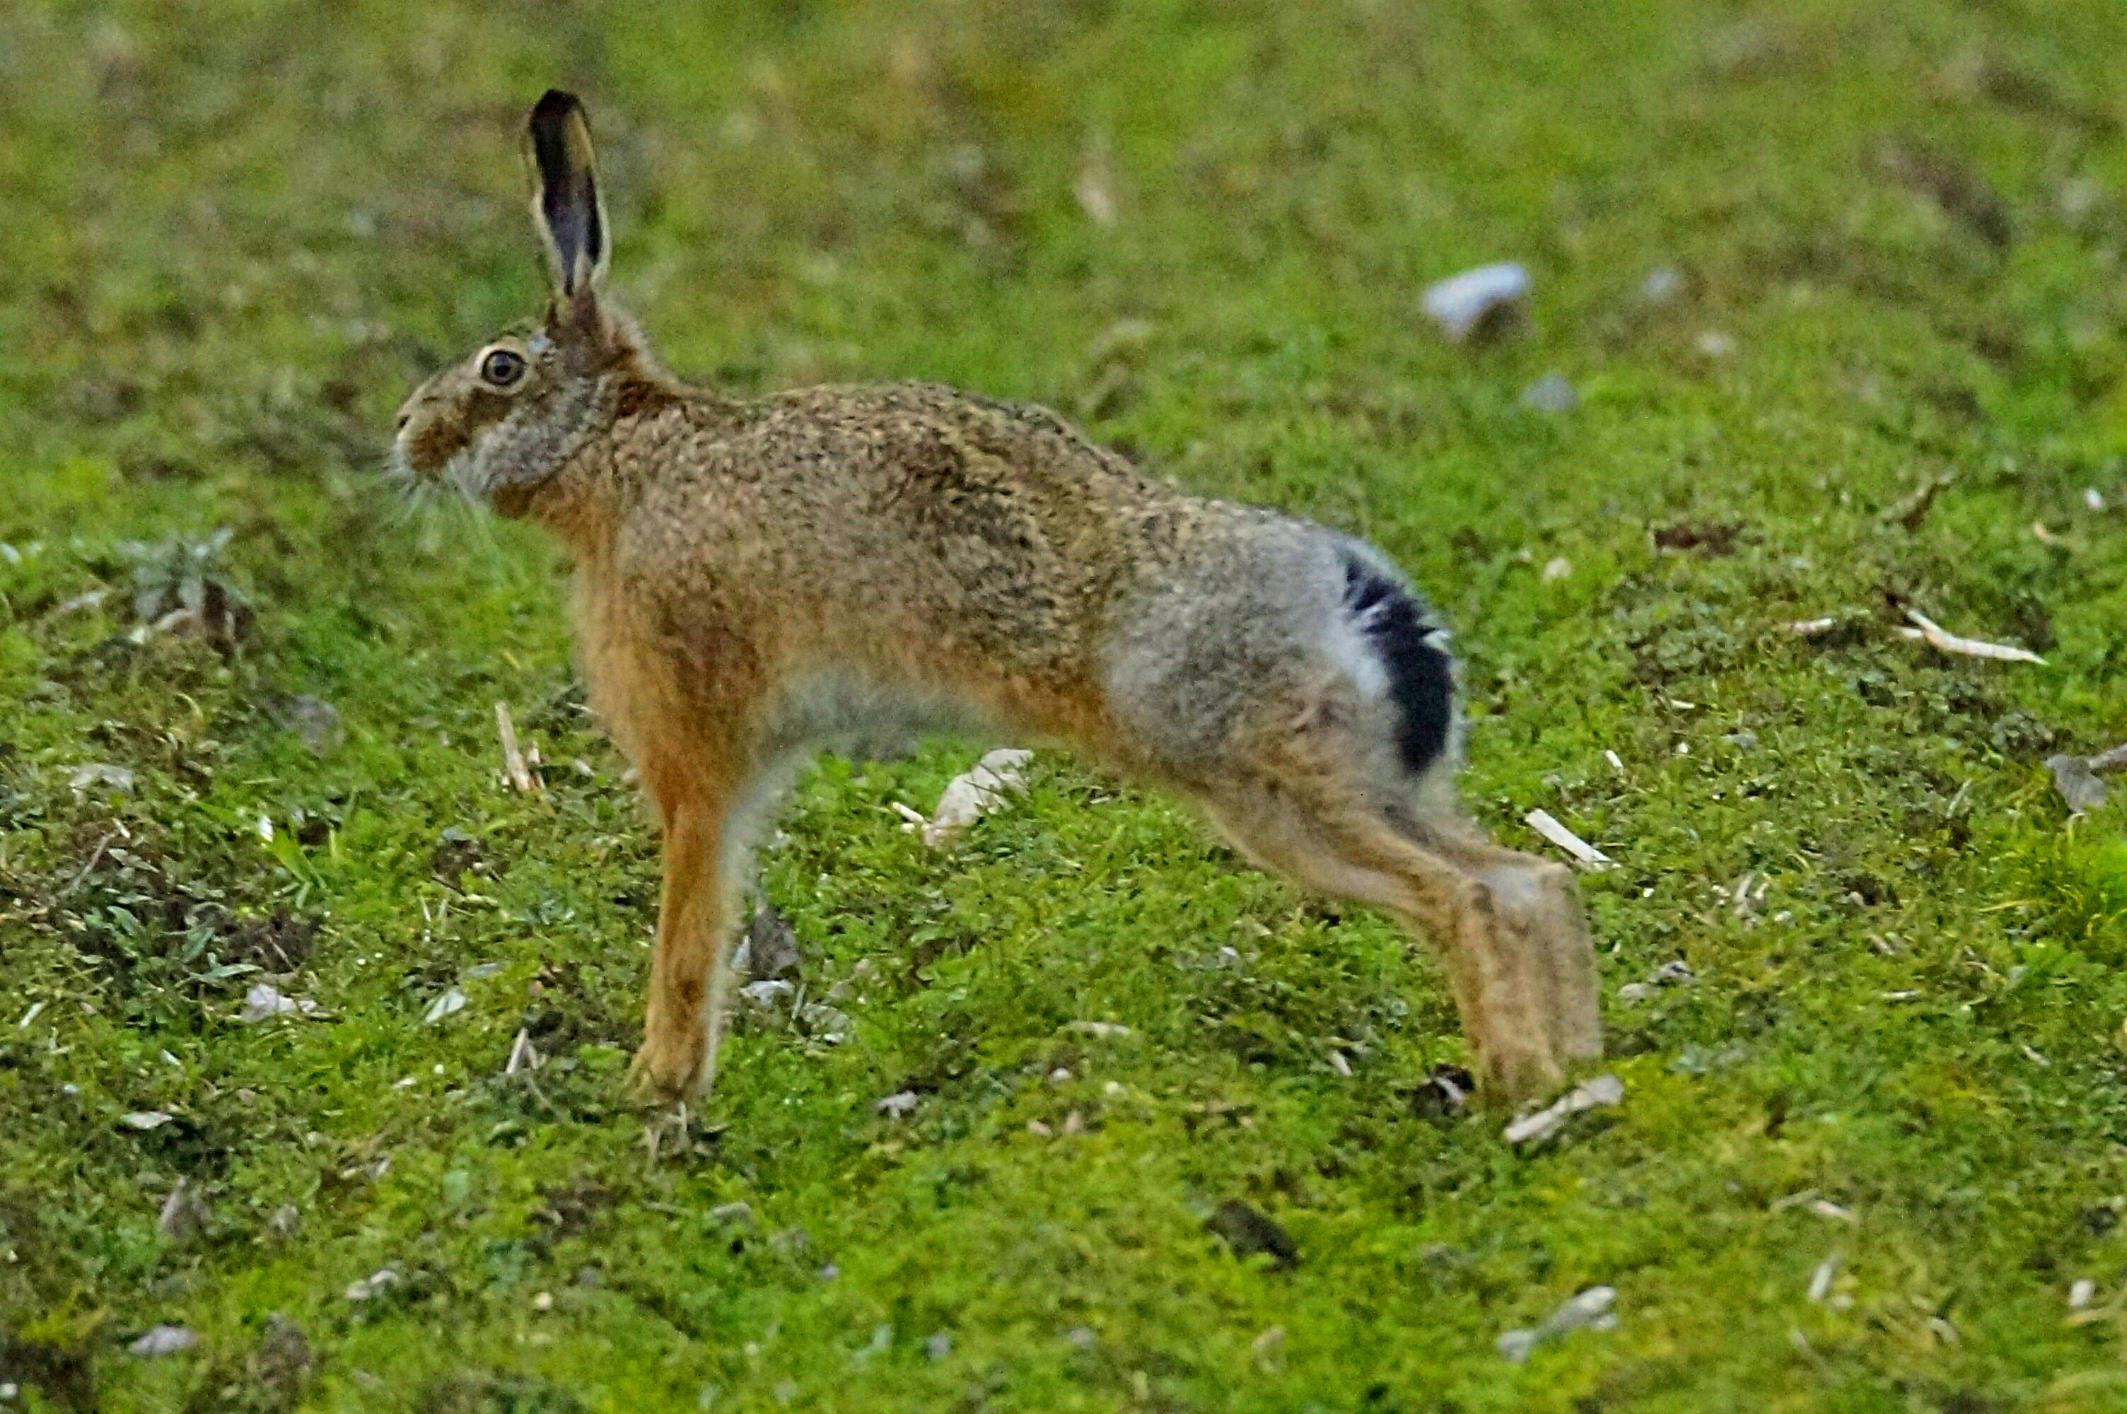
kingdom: Animalia
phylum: Chordata
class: Mammalia
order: Lagomorpha
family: Leporidae
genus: Lepus
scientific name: Lepus europaeus
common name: Hare
